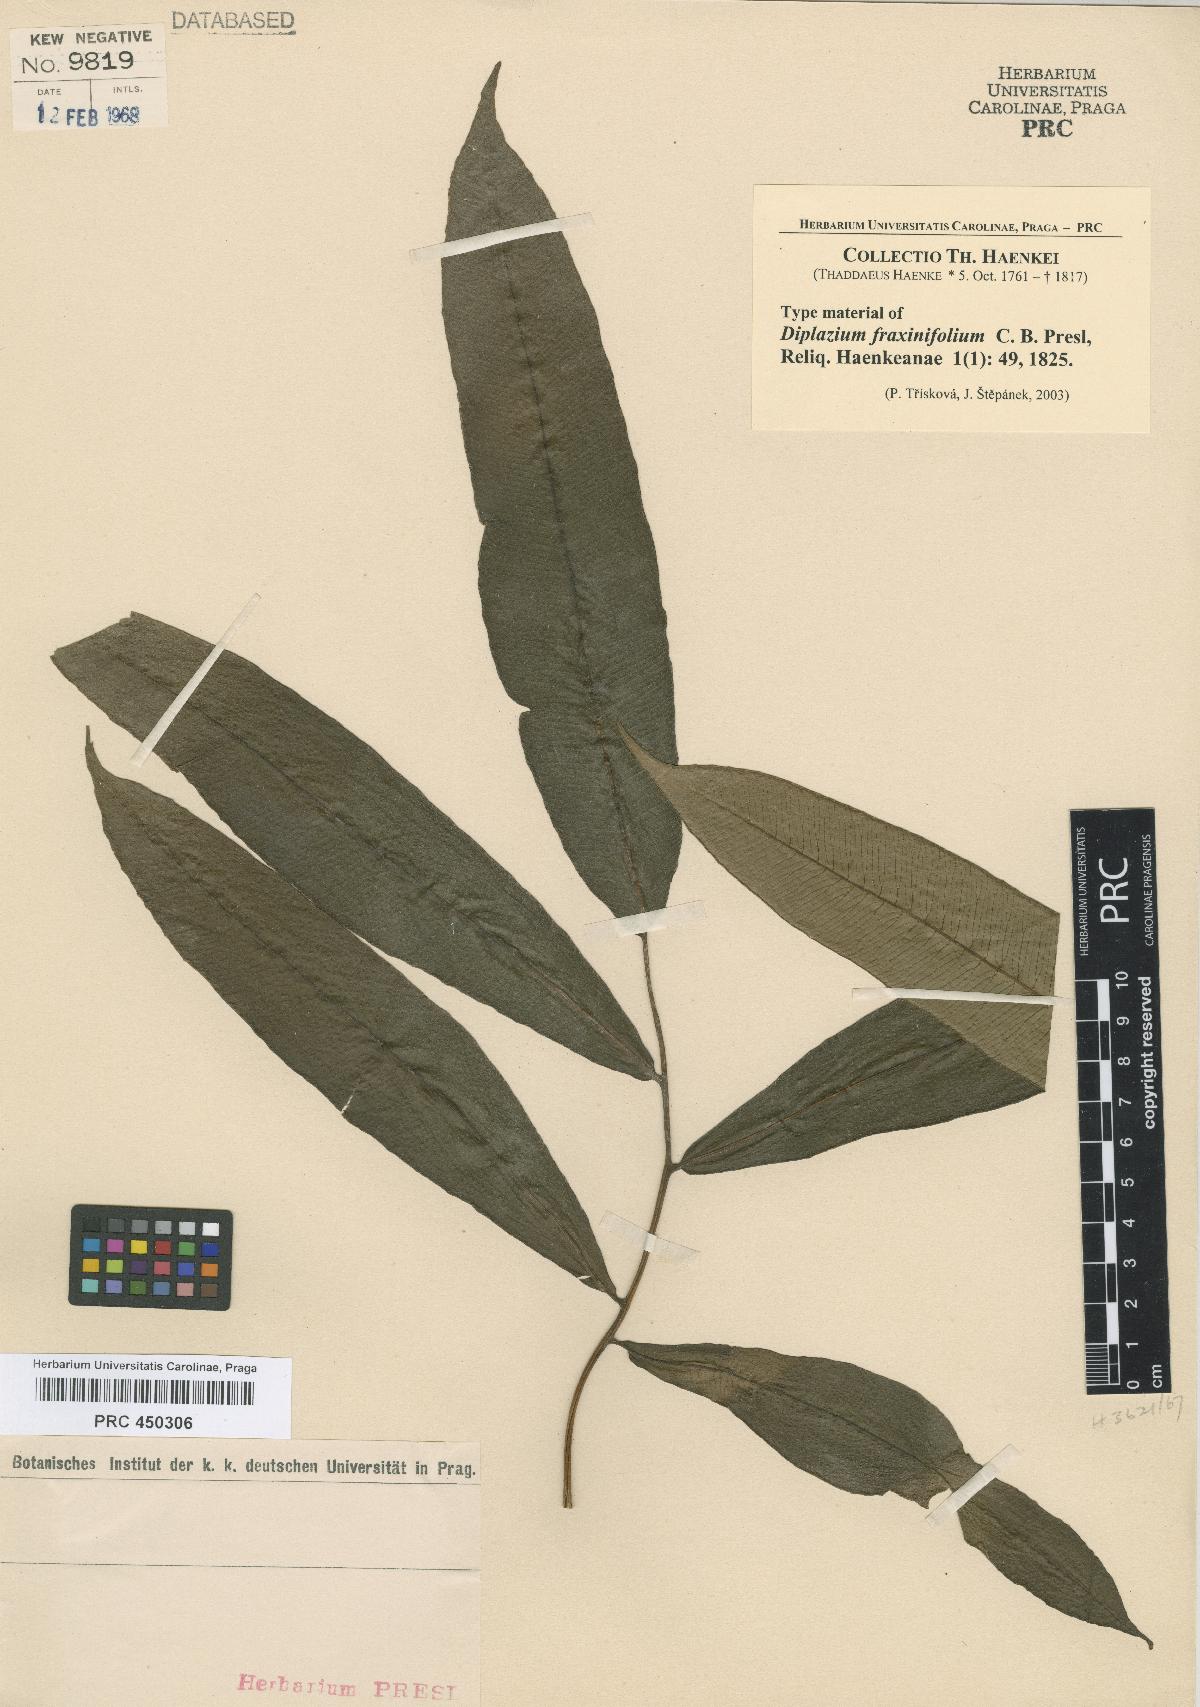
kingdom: Plantae
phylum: Tracheophyta
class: Polypodiopsida
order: Polypodiales
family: Athyriaceae
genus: Diplazium
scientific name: Diplazium fraxinifolium
